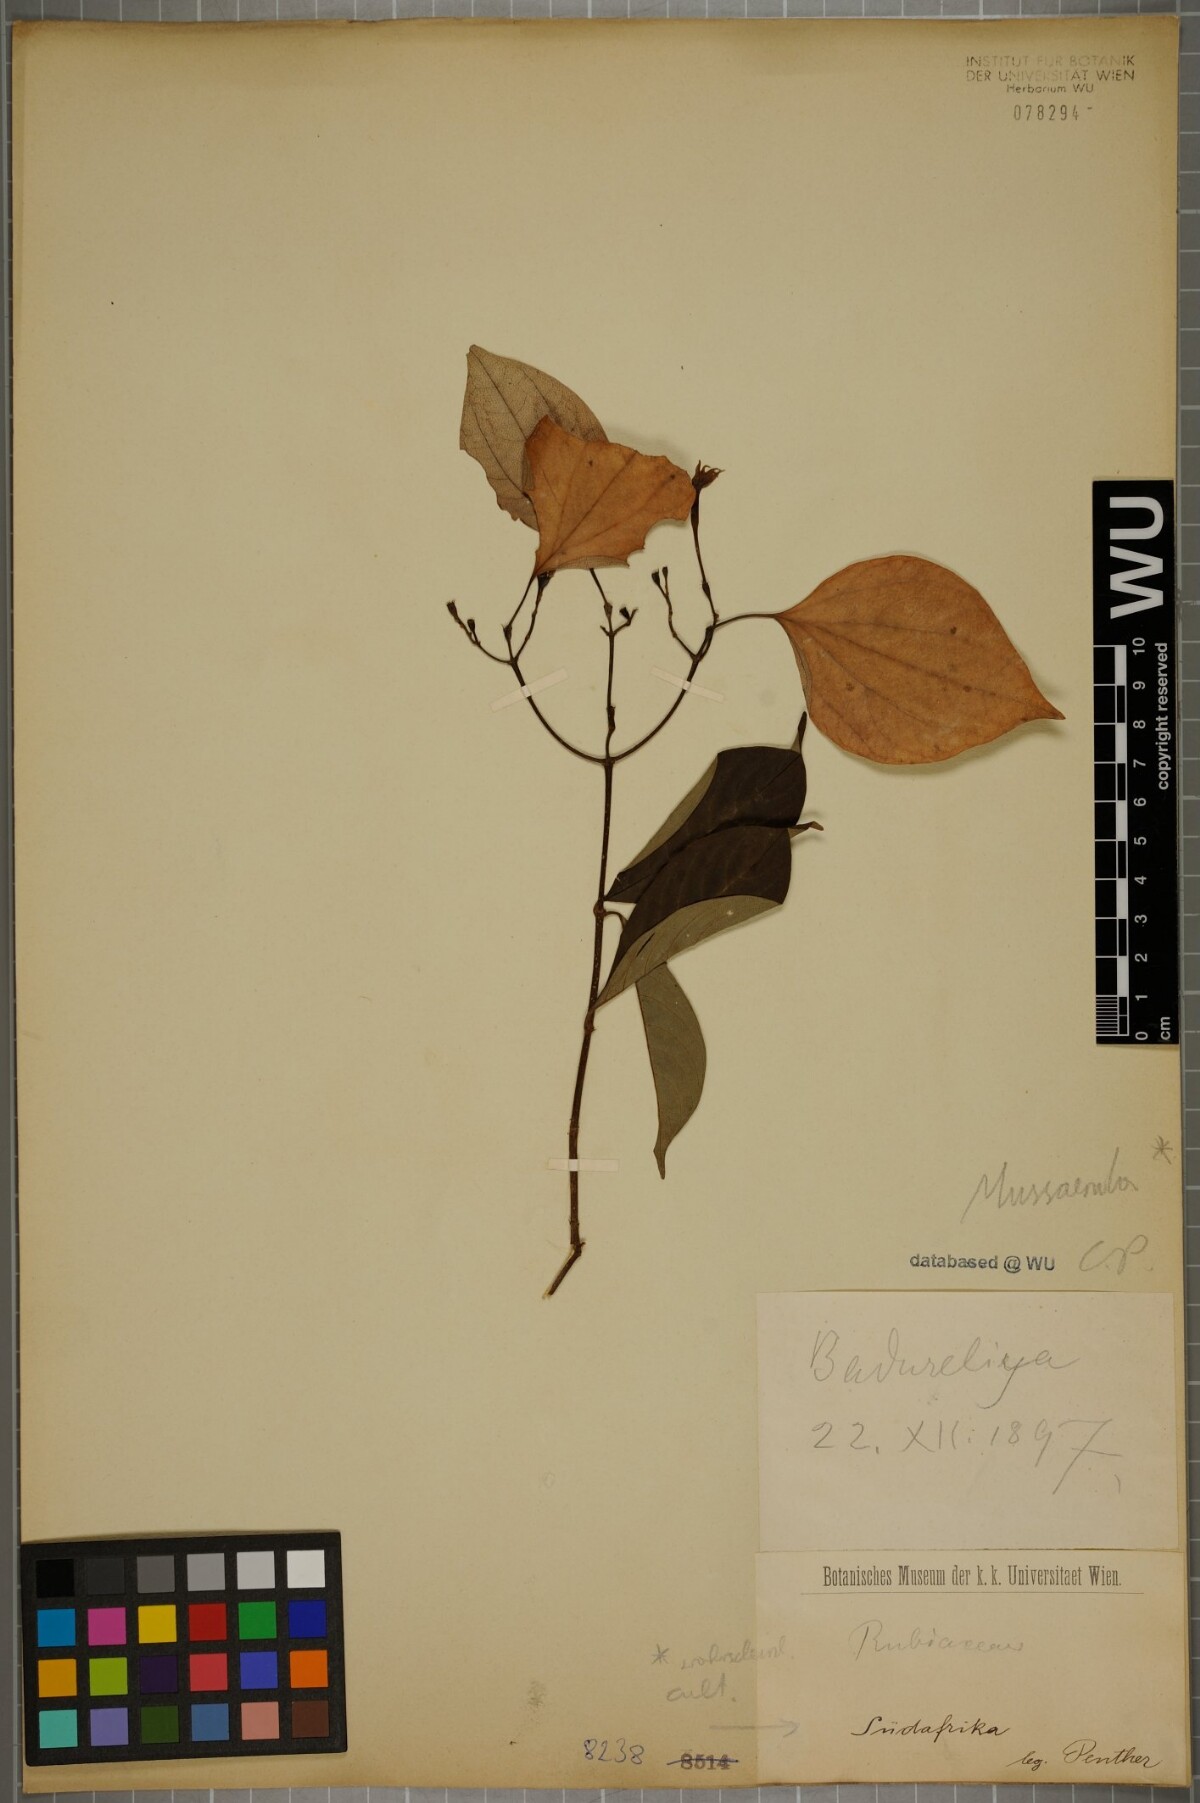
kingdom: Plantae
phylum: Tracheophyta
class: Magnoliopsida
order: Gentianales
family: Rubiaceae
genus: Mussaenda
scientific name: Mussaenda
